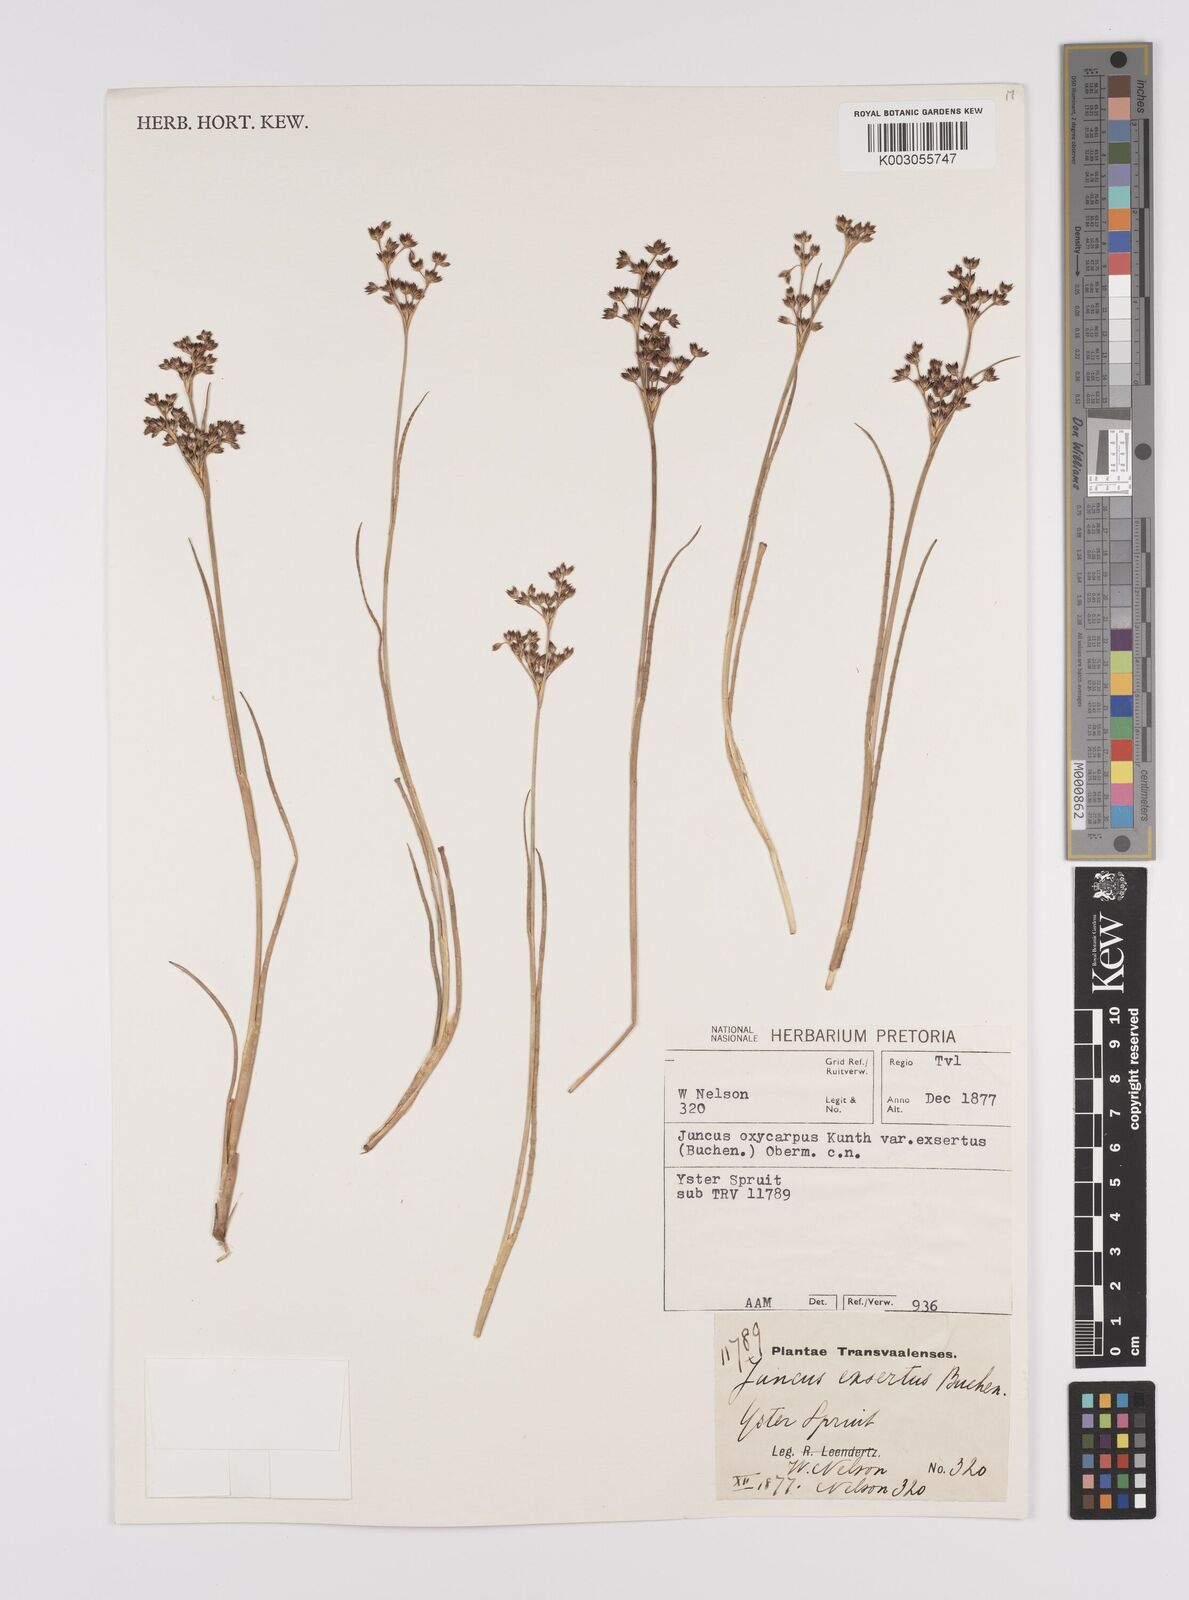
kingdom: Plantae
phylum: Tracheophyta
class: Liliopsida
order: Poales
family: Juncaceae
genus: Juncus
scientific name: Juncus exsertus
